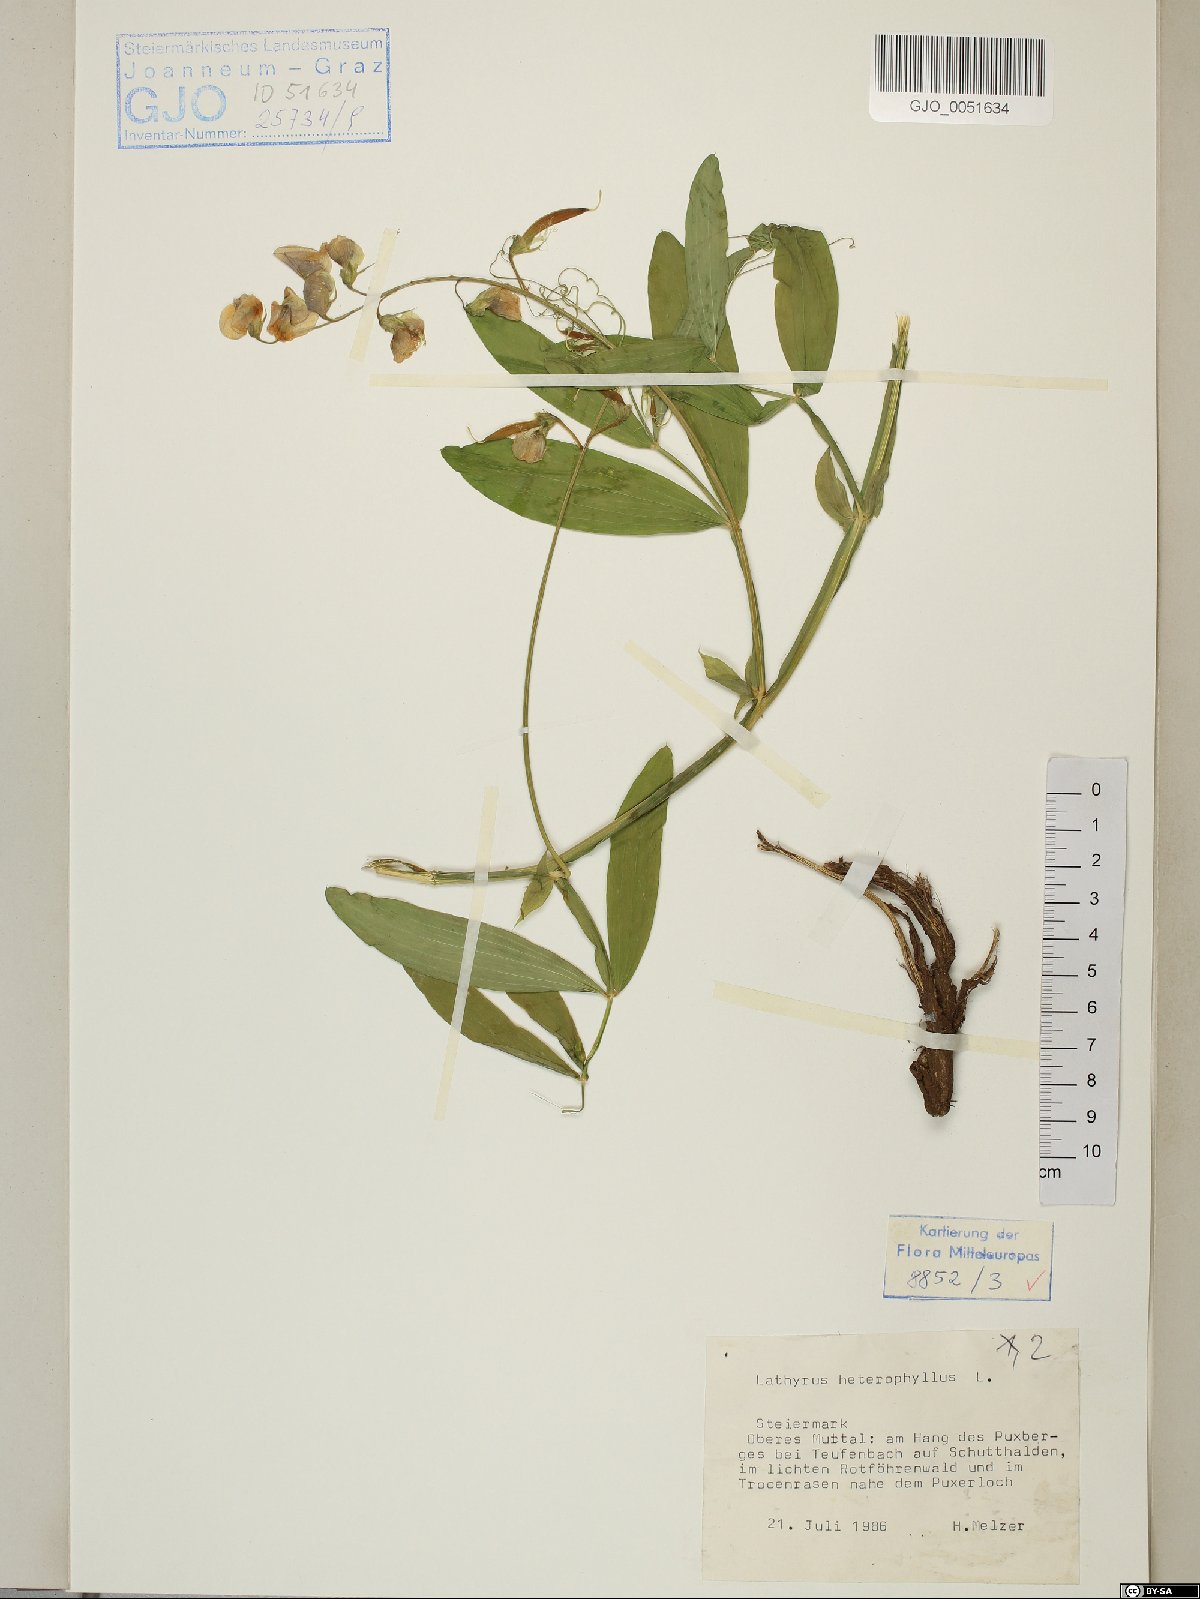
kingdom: Plantae
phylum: Tracheophyta
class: Magnoliopsida
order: Fabales
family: Fabaceae
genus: Lathyrus
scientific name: Lathyrus heterophyllus
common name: Norfolk everlasting-pea
